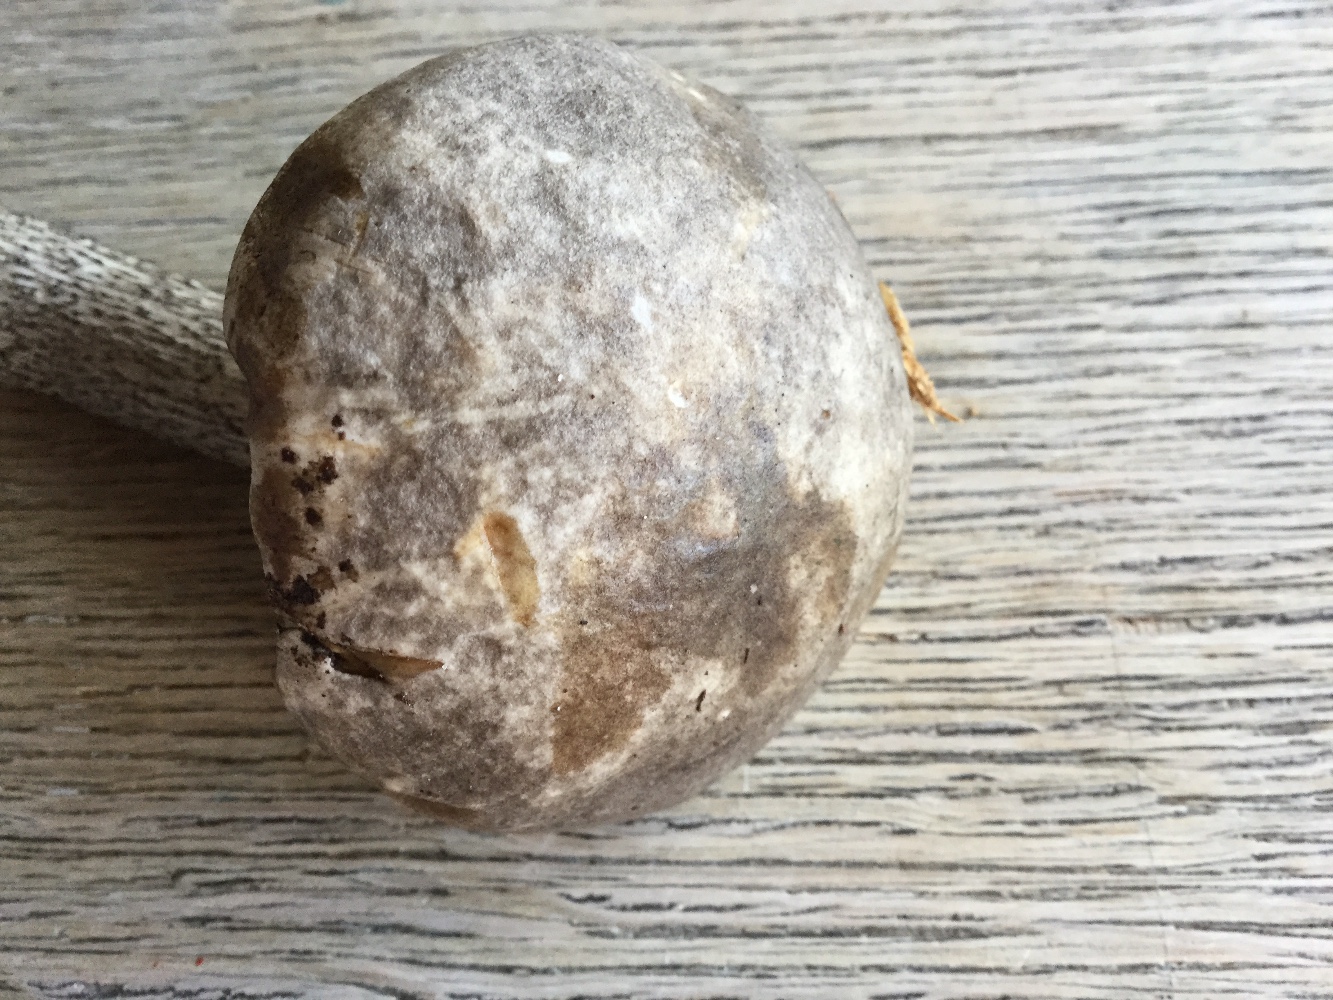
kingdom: Fungi
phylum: Basidiomycota
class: Agaricomycetes
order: Boletales
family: Boletaceae
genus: Leccinum
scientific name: Leccinum variicolor
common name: flammet skælrørhat
